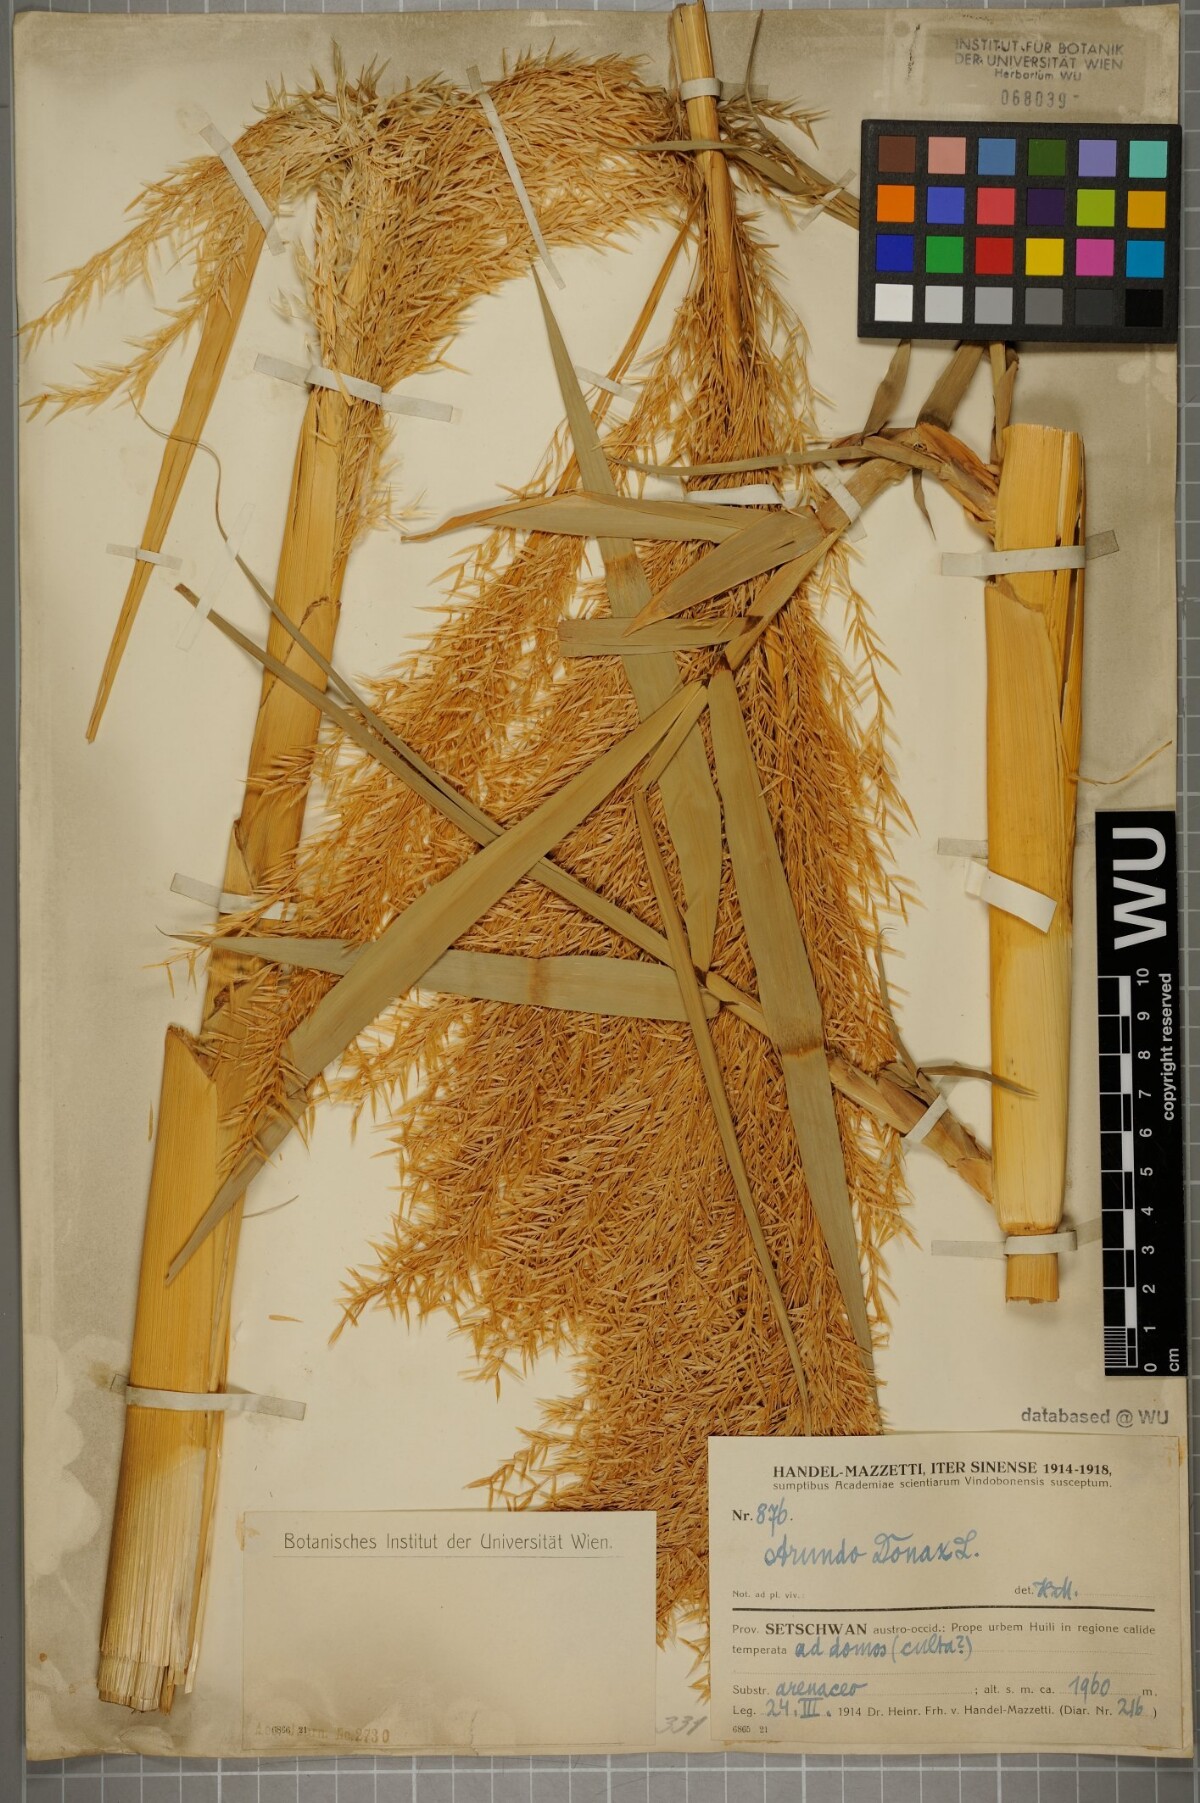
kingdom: Plantae
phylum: Tracheophyta
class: Liliopsida
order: Poales
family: Poaceae
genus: Arundo
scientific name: Arundo donax
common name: Giant reed
